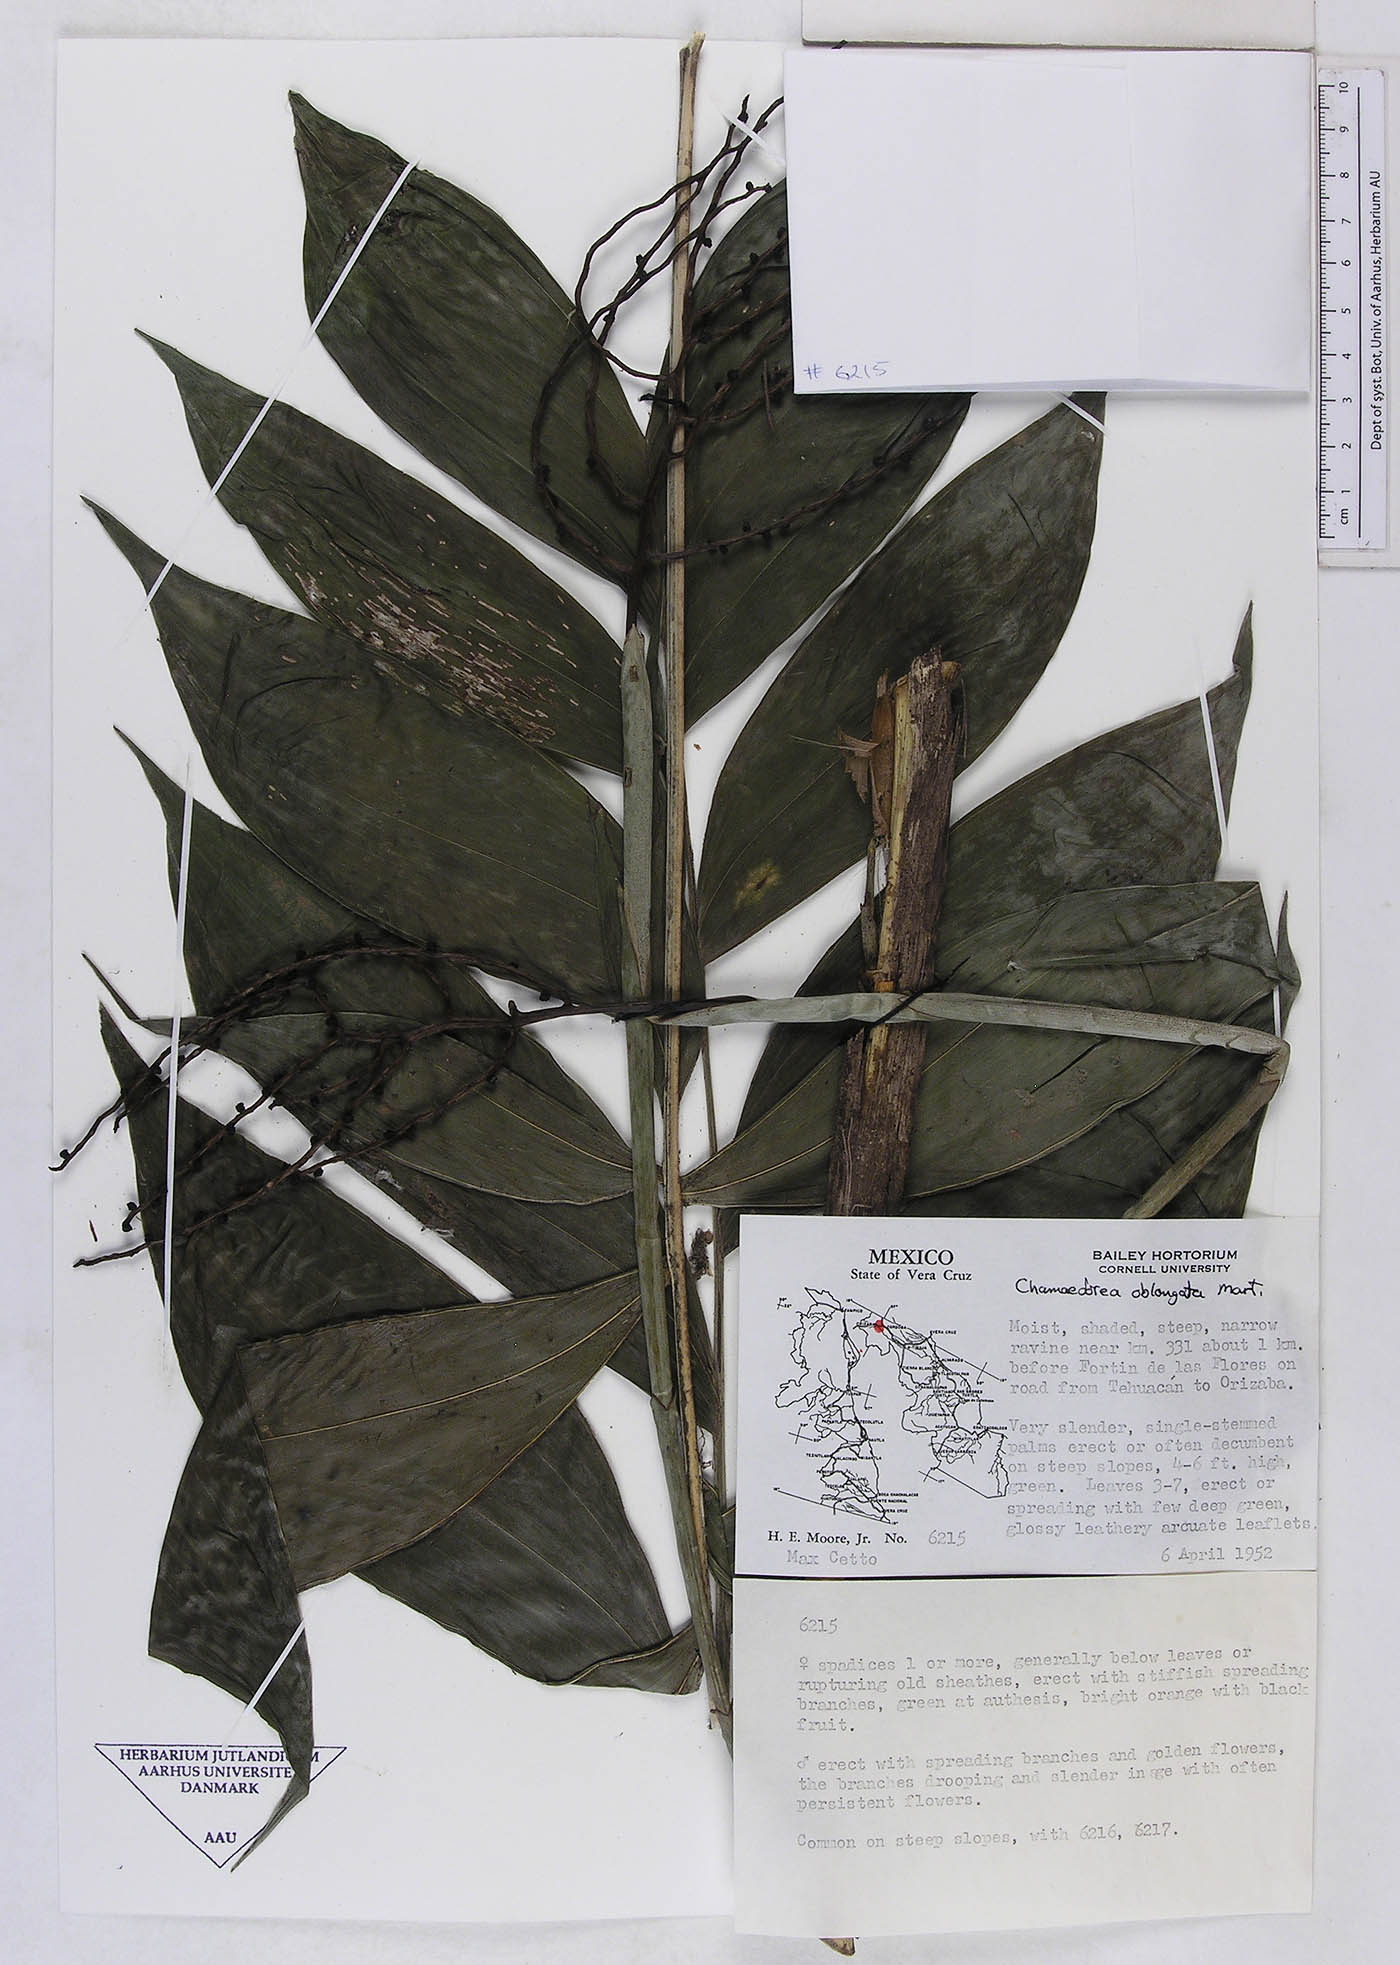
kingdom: Plantae
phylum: Tracheophyta
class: Liliopsida
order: Arecales
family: Arecaceae
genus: Chamaedorea
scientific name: Chamaedorea oblongata
